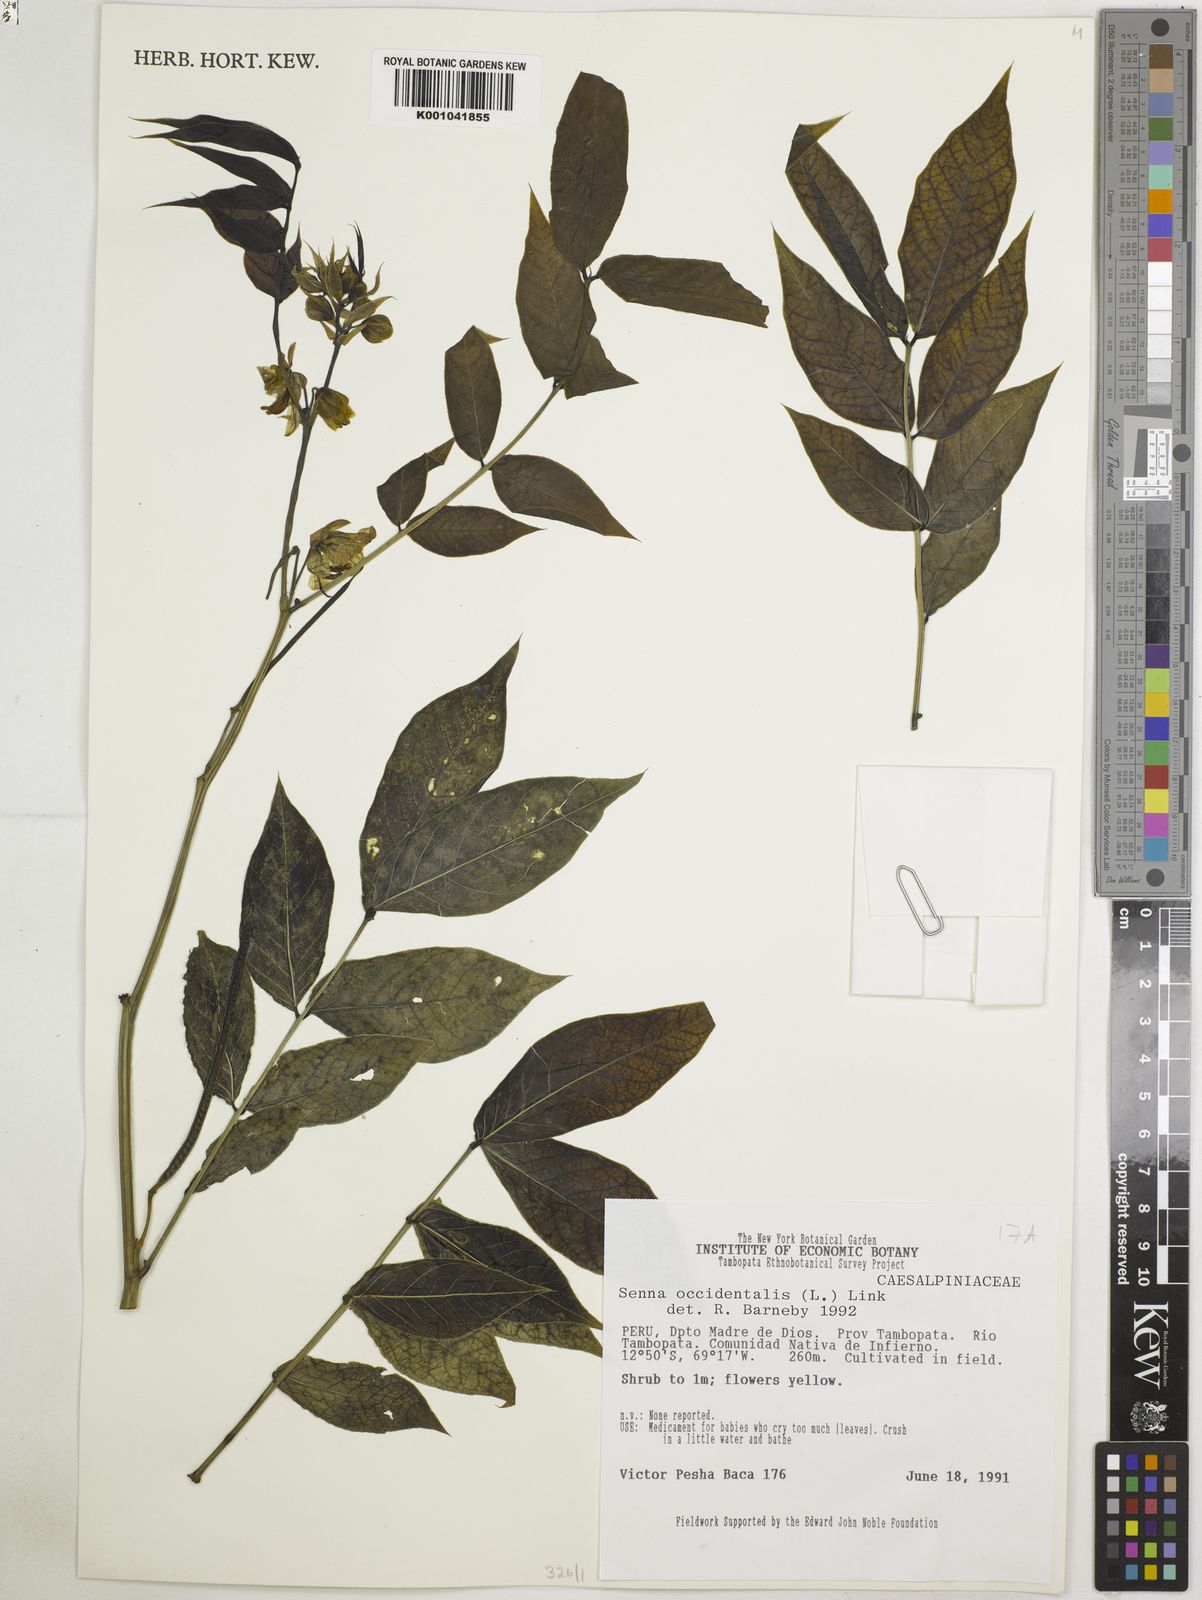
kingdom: Plantae
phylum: Tracheophyta
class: Magnoliopsida
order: Fabales
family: Fabaceae
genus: Senna
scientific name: Senna occidentalis
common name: Septicweed
